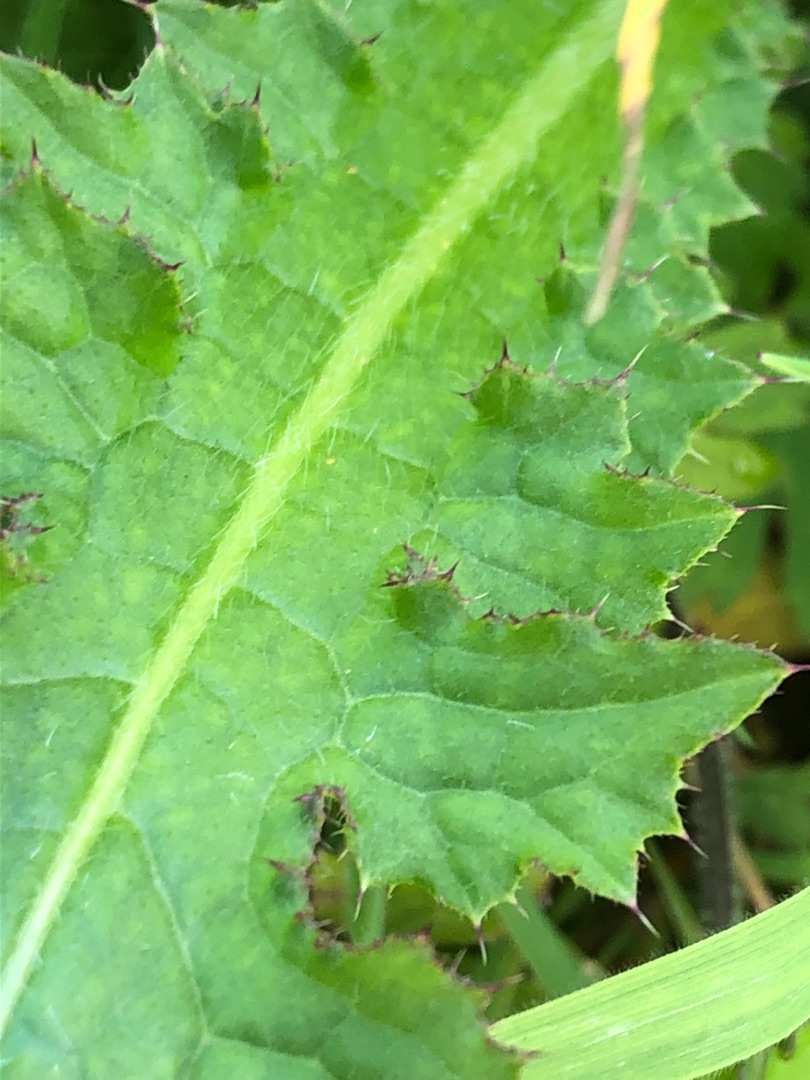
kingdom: Plantae
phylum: Tracheophyta
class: Magnoliopsida
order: Asterales
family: Asteraceae
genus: Cirsium
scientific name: Cirsium palustre
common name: Kær-tidsel
